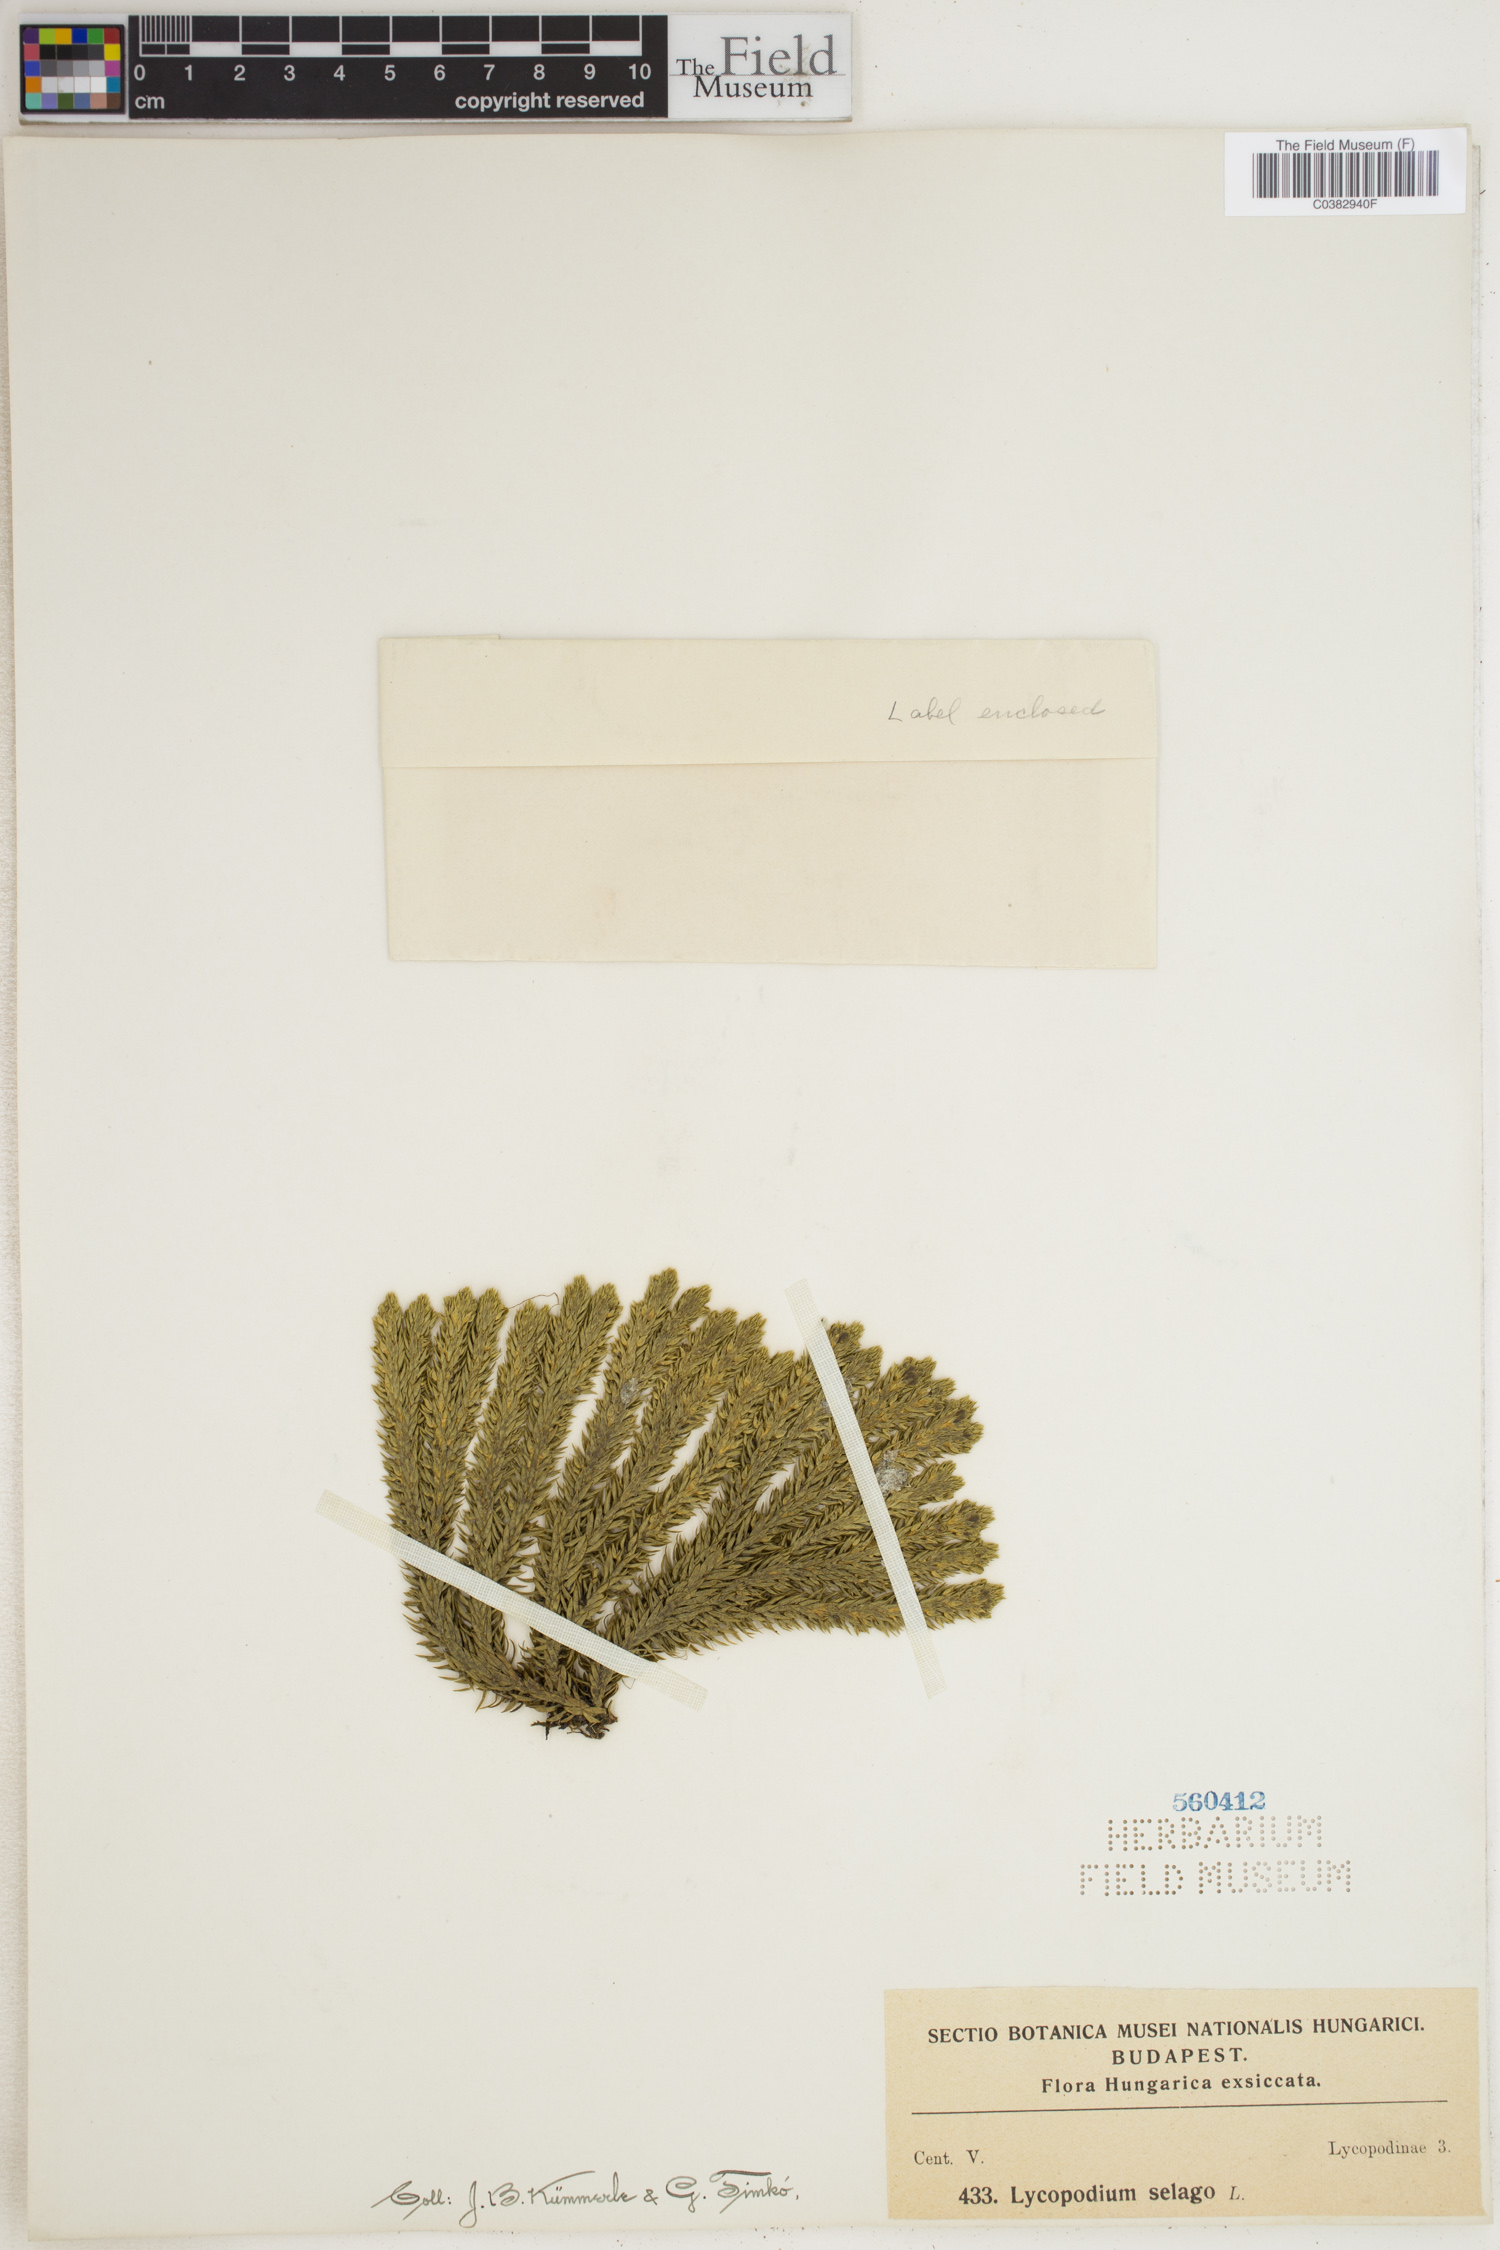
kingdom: Plantae
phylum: Tracheophyta
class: Lycopodiopsida
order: Lycopodiales
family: Lycopodiaceae
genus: Huperzia
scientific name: Huperzia selago
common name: Northern firmoss
